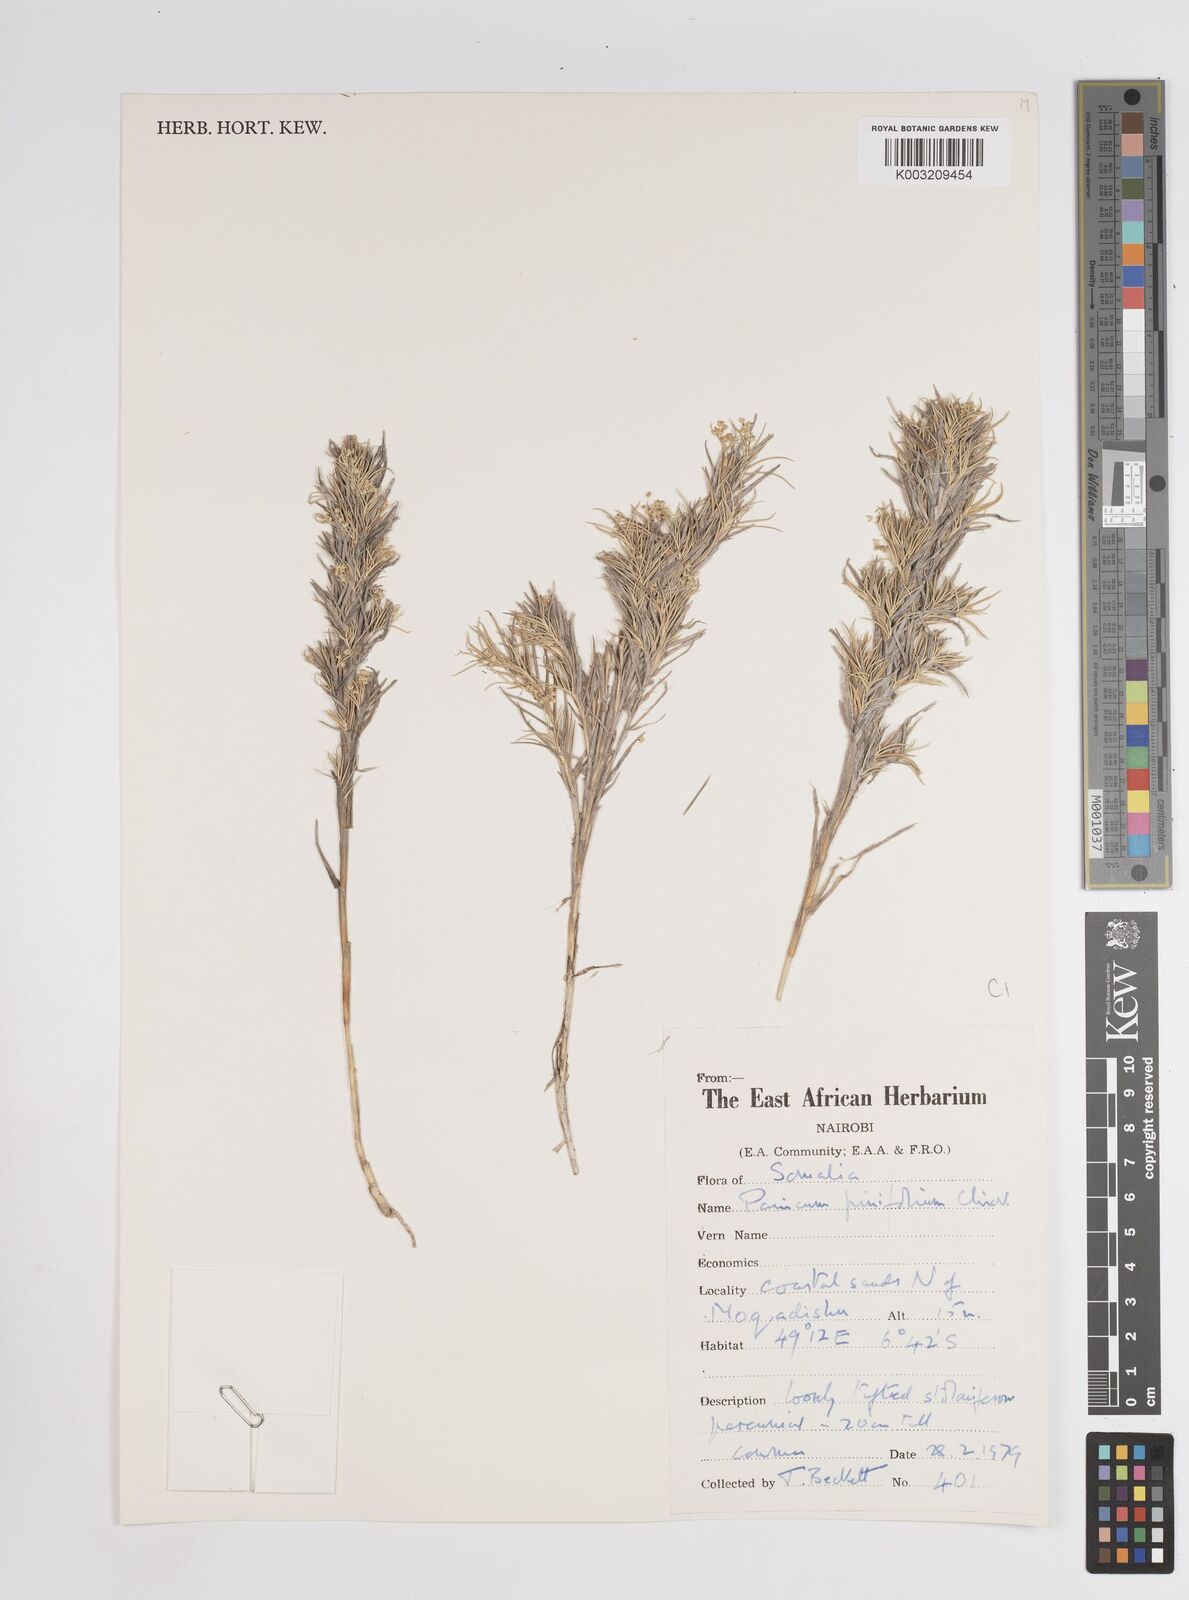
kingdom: Plantae
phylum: Tracheophyta
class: Liliopsida
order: Poales
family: Poaceae
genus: Panicum
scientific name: Panicum pinifolium
